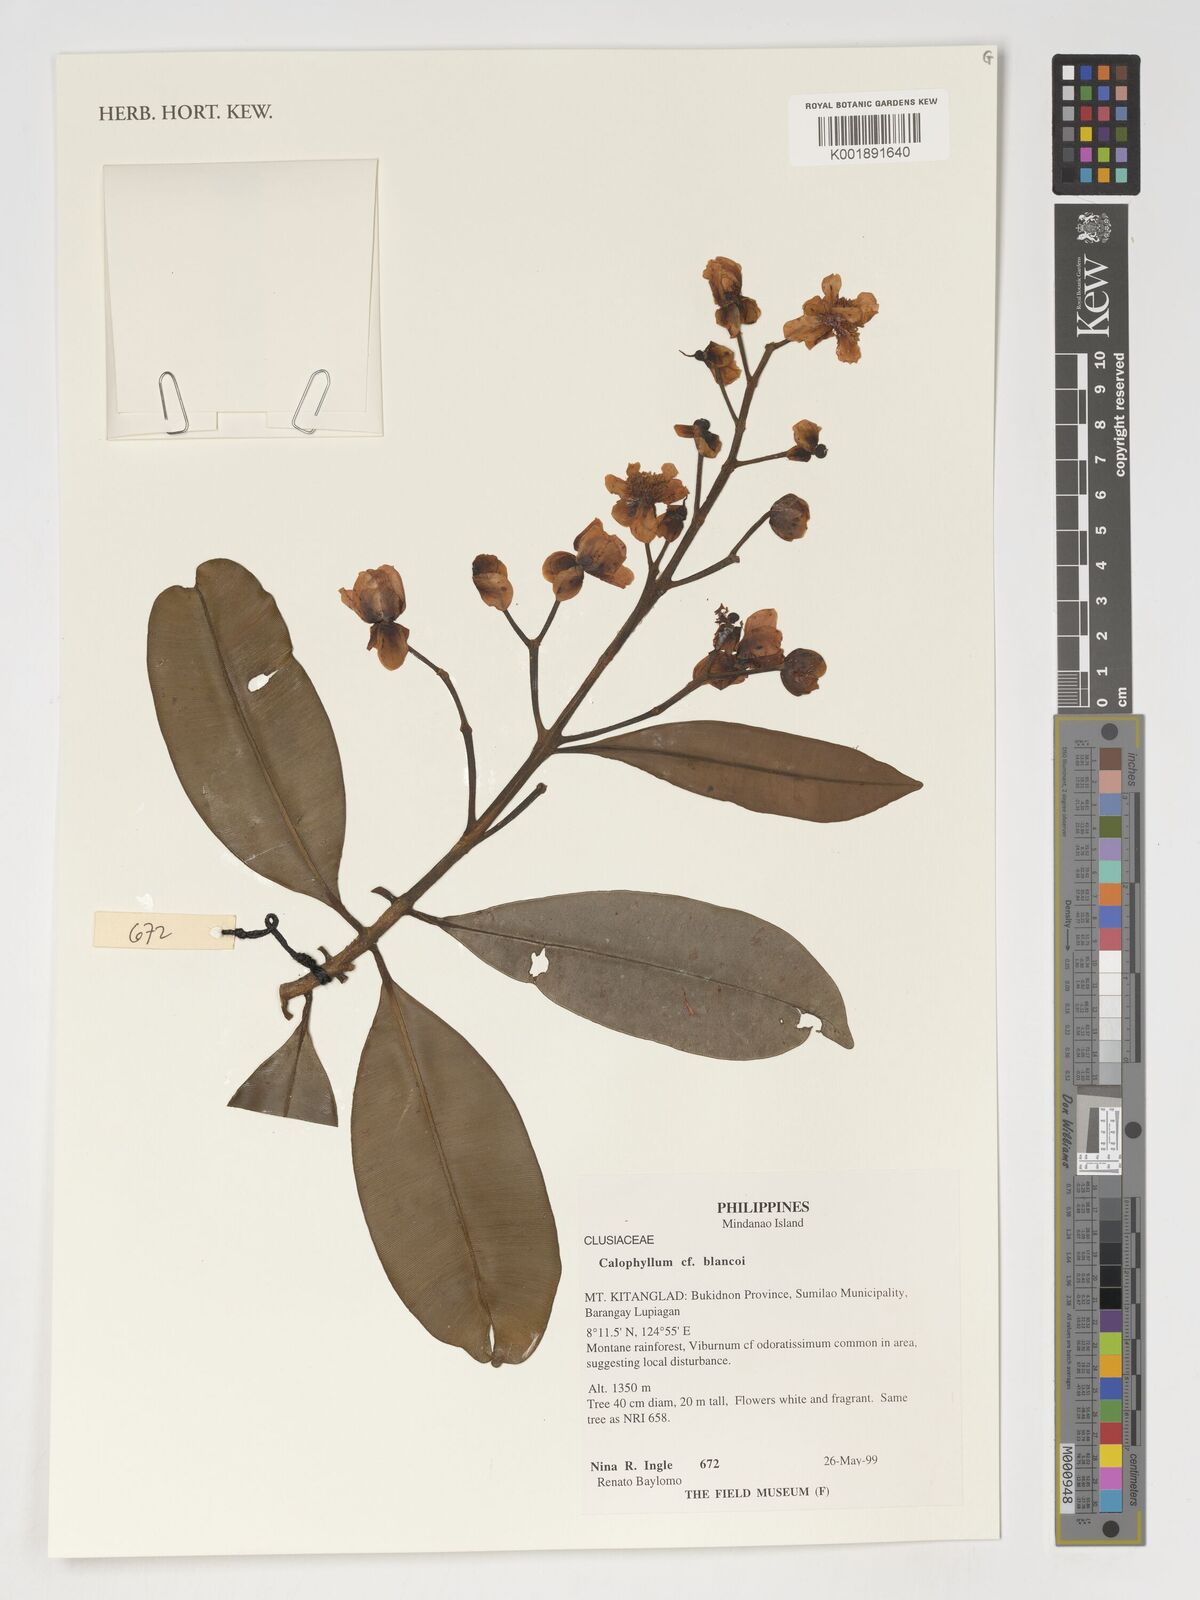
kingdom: Plantae
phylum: Tracheophyta
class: Magnoliopsida
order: Malpighiales
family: Calophyllaceae
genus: Calophyllum
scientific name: Calophyllum blancoi
